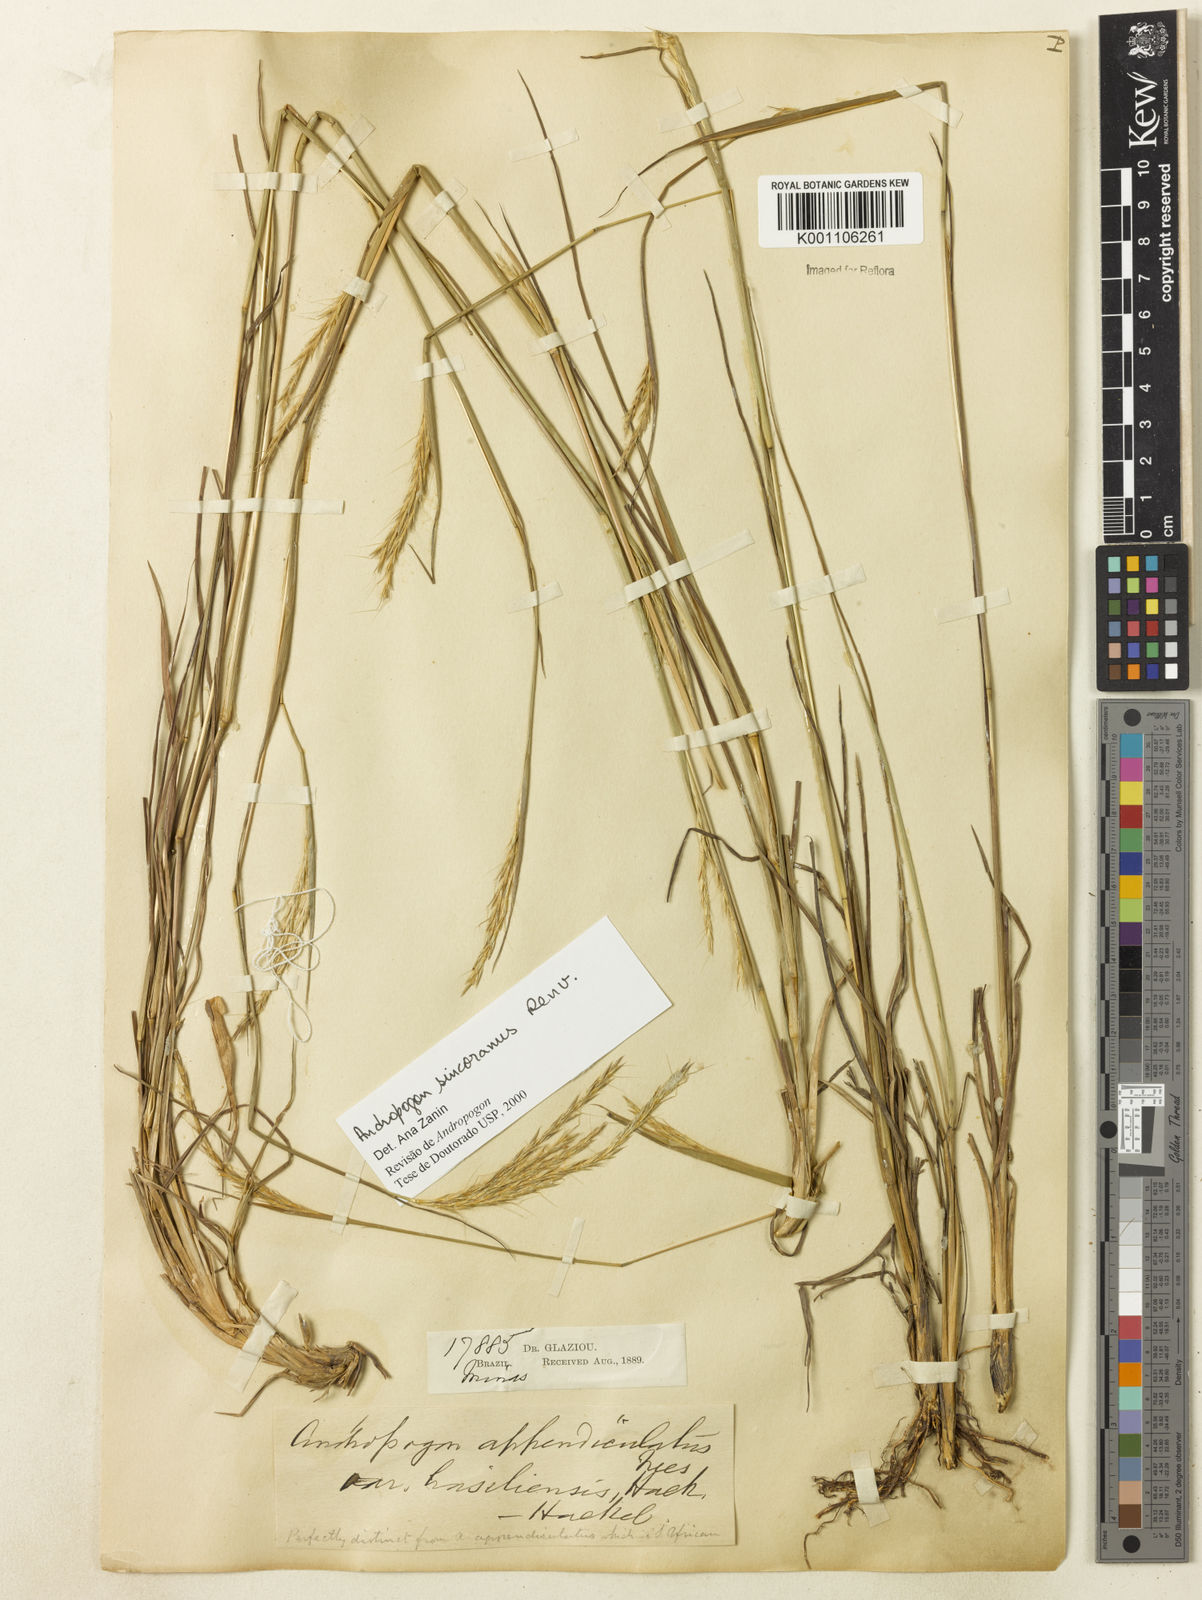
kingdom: Plantae
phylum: Tracheophyta
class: Liliopsida
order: Poales
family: Poaceae
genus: Andropogon
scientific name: Andropogon ingratus
